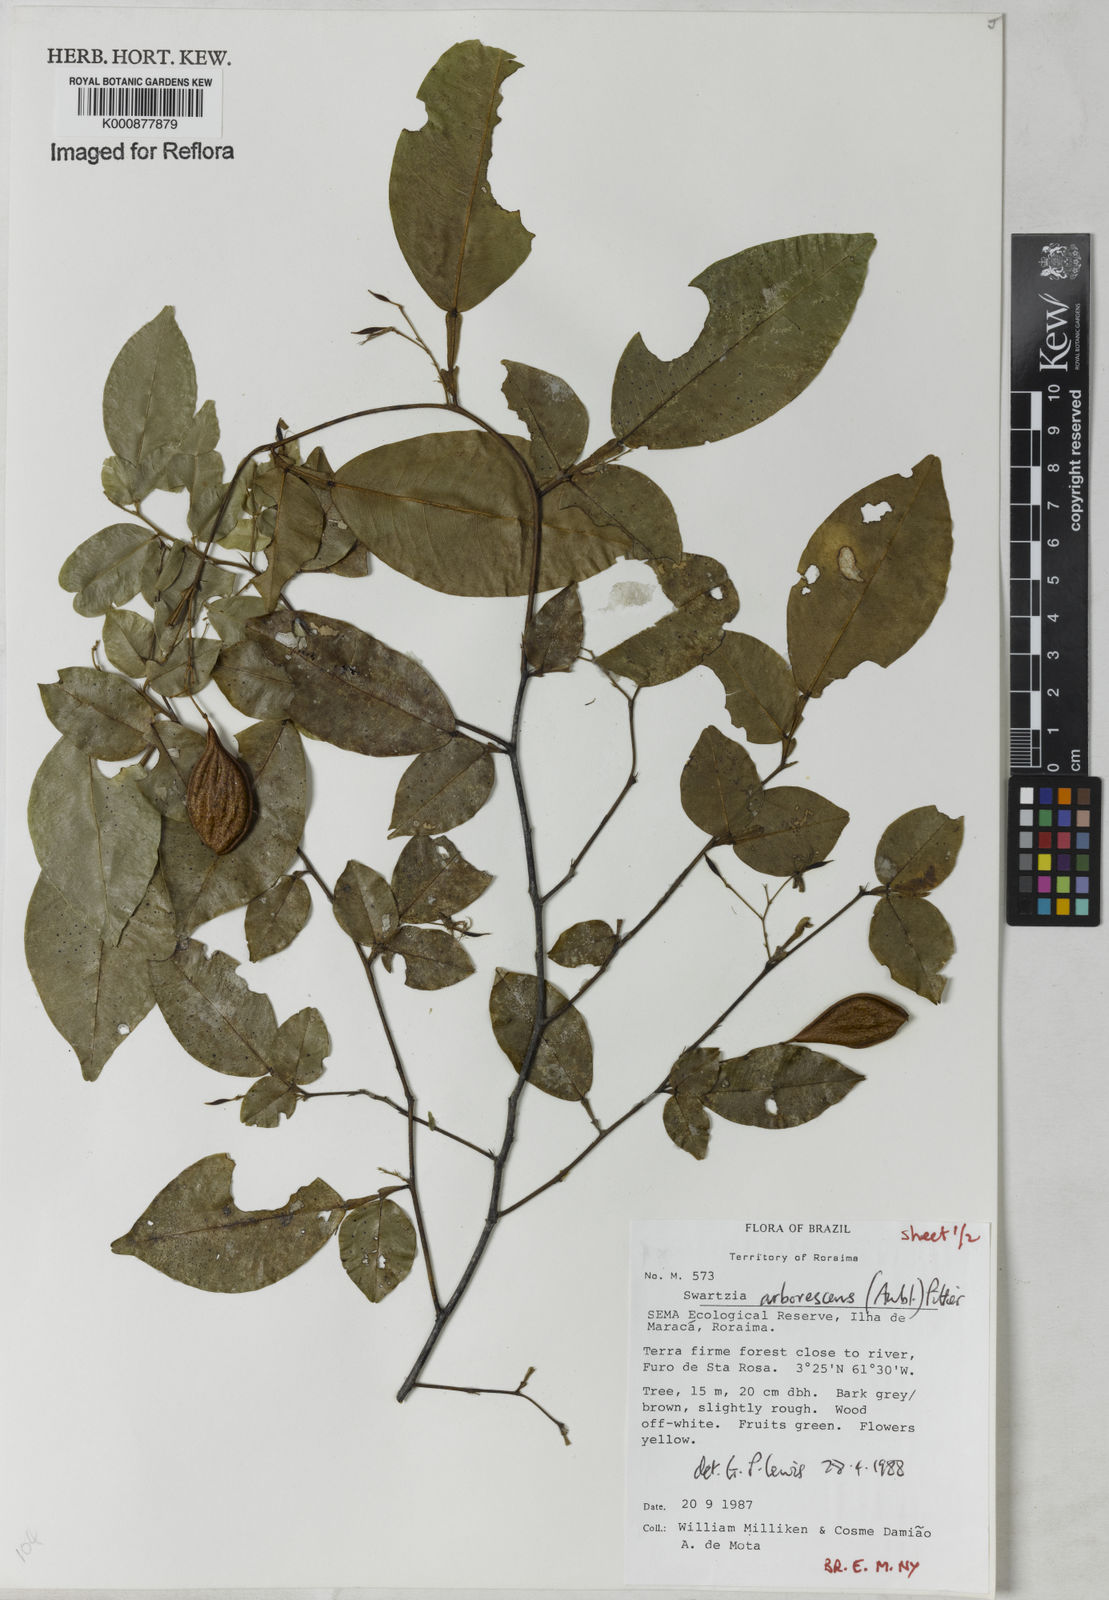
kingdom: Plantae
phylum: Tracheophyta
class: Magnoliopsida
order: Fabales
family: Fabaceae
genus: Swartzia
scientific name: Swartzia arborescens
